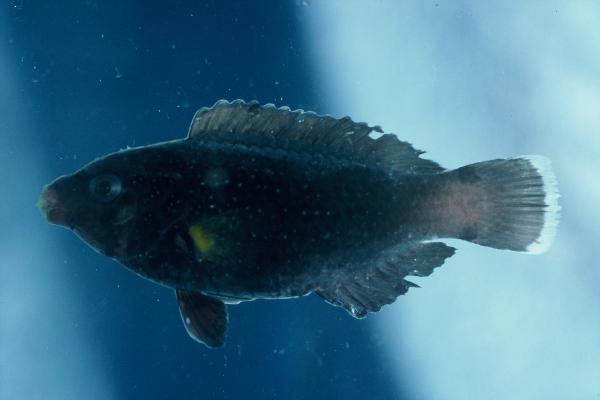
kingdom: Animalia
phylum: Chordata
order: Perciformes
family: Scaridae
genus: Scarus
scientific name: Scarus
